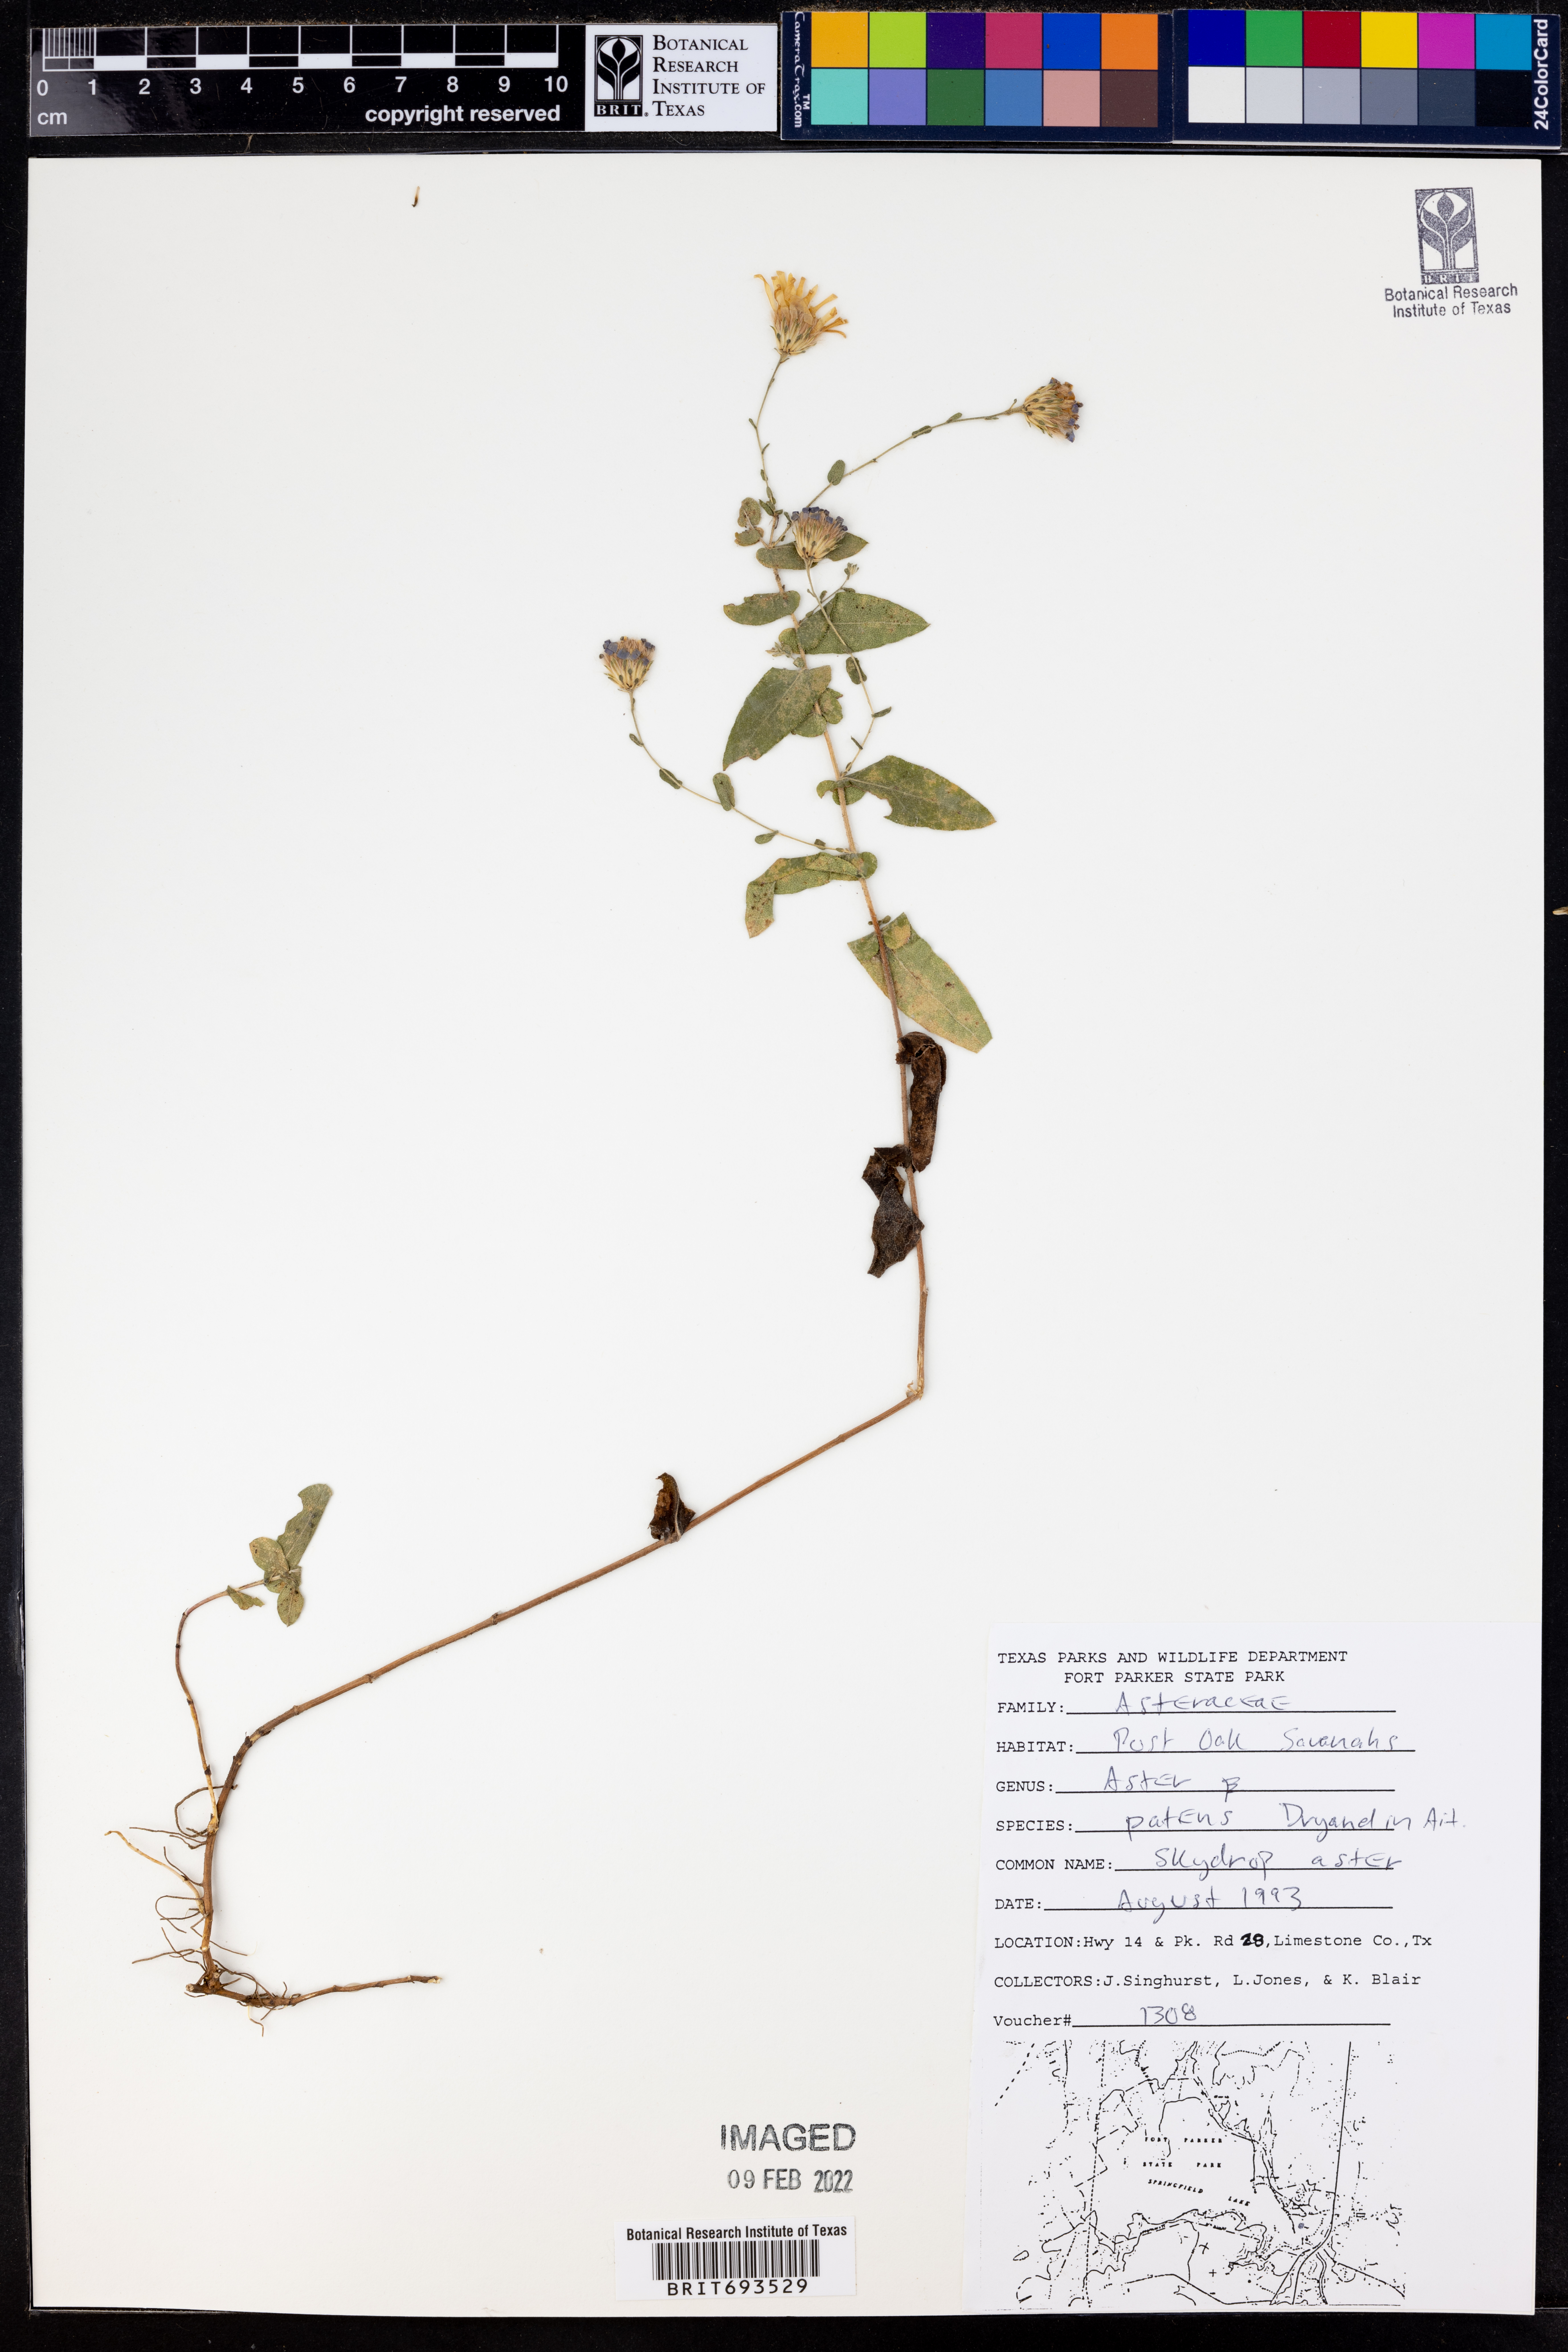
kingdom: Plantae
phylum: Tracheophyta
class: Magnoliopsida
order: Asterales
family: Asteraceae
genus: Symphyotrichum
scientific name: Symphyotrichum patens
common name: Late purple aster
